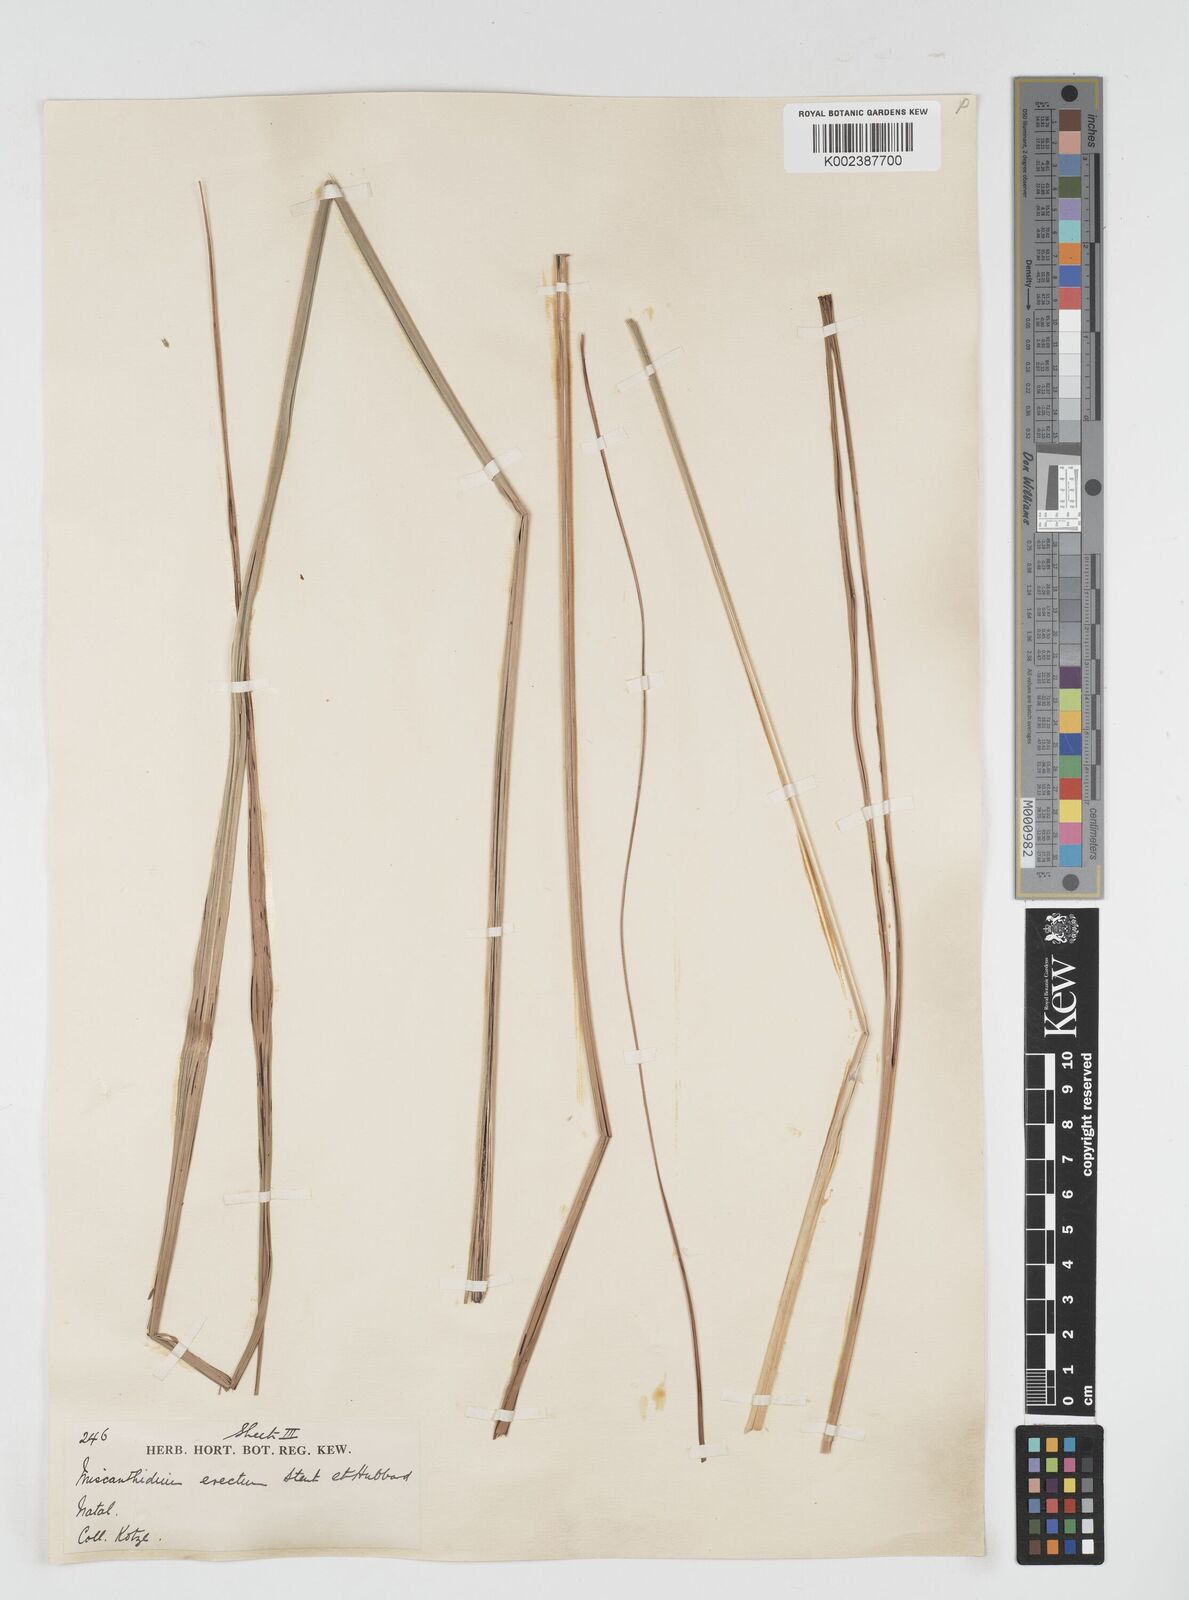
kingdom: Plantae
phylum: Tracheophyta
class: Liliopsida
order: Poales
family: Poaceae
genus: Miscanthus
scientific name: Miscanthus ecklonii
